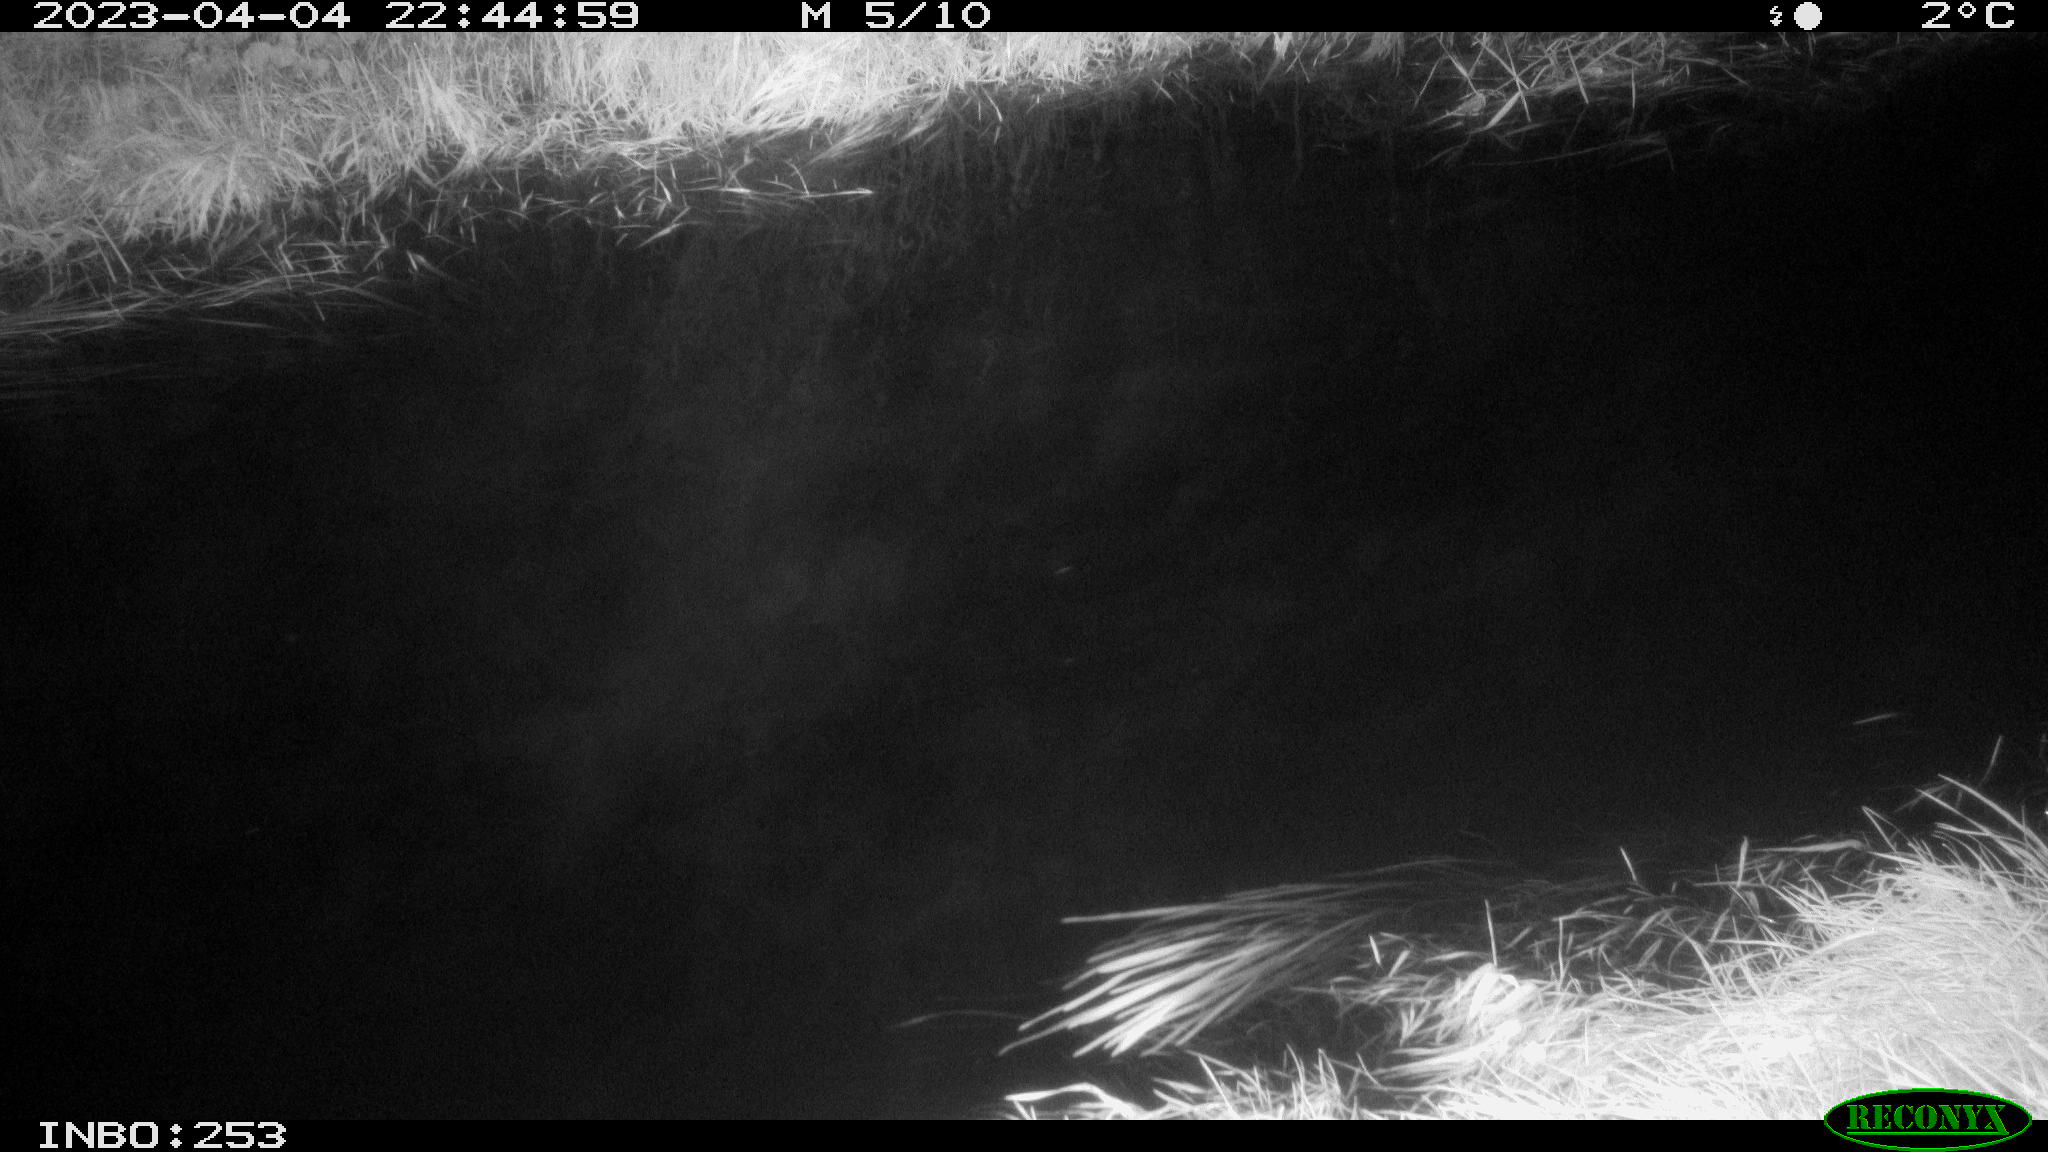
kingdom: Animalia
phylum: Chordata
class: Aves
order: Anseriformes
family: Anatidae
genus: Anas
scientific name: Anas
